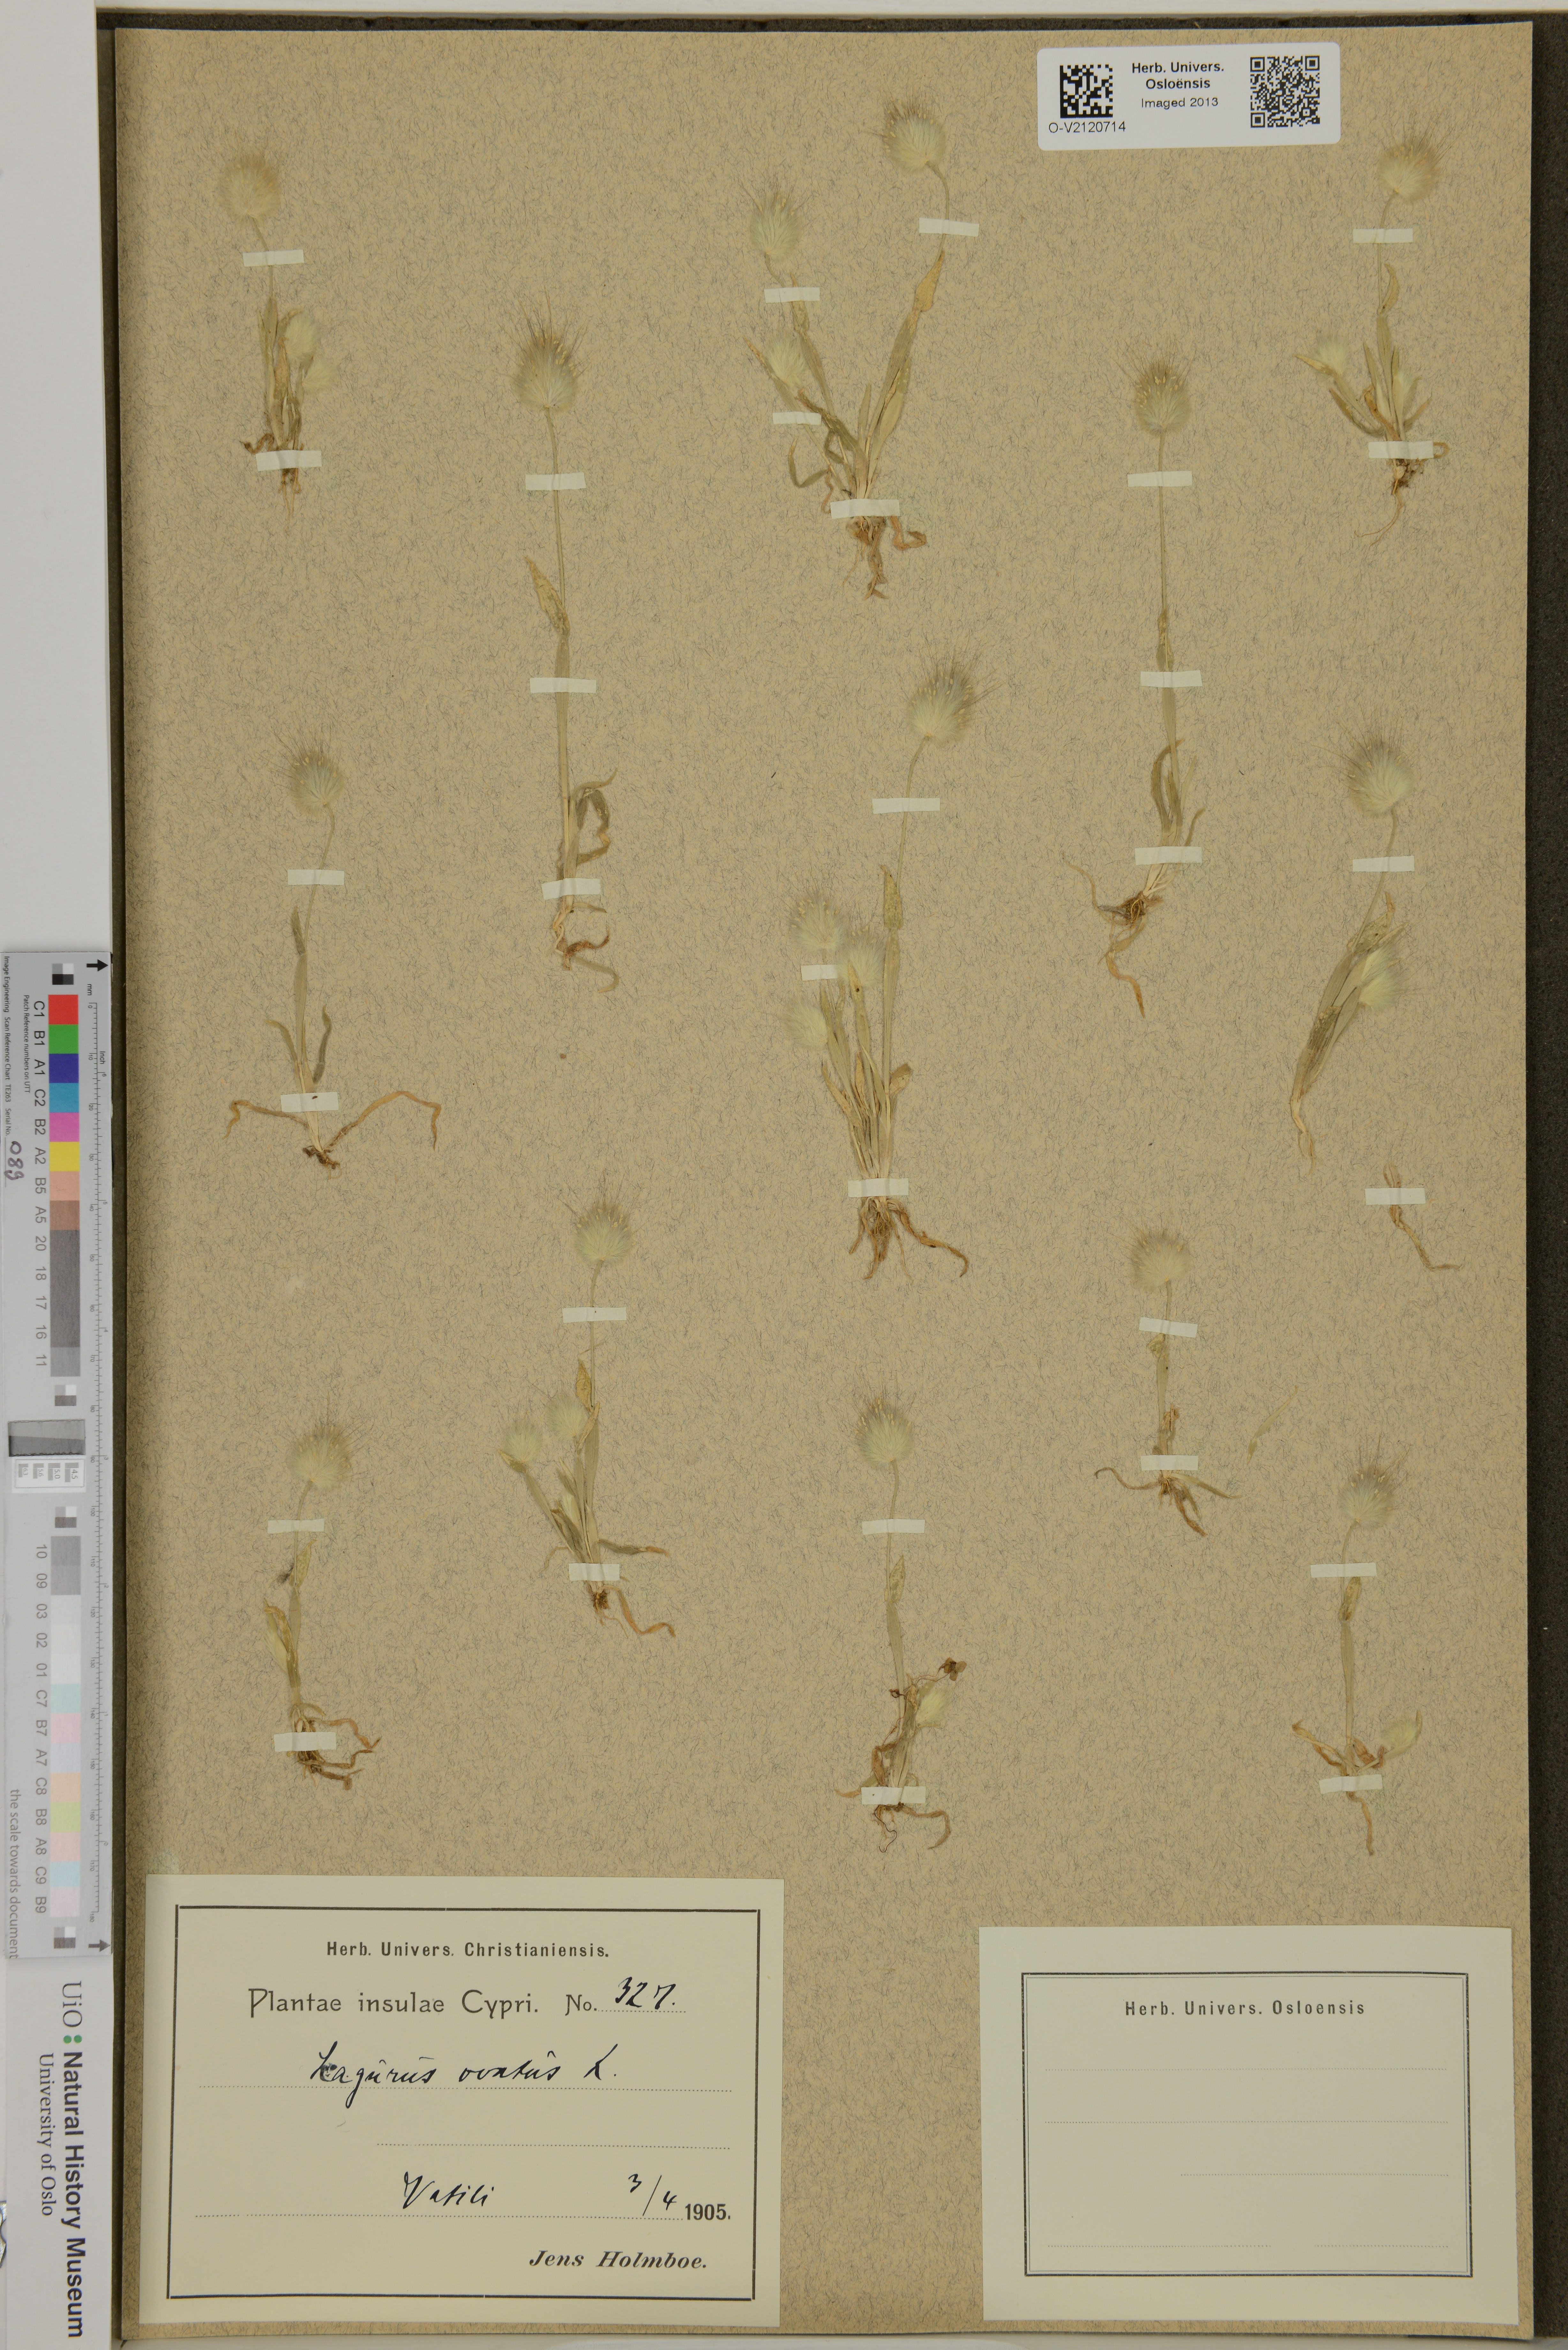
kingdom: Plantae
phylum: Tracheophyta
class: Liliopsida
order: Poales
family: Poaceae
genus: Lagurus
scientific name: Lagurus ovatus
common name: Hare's-tail
